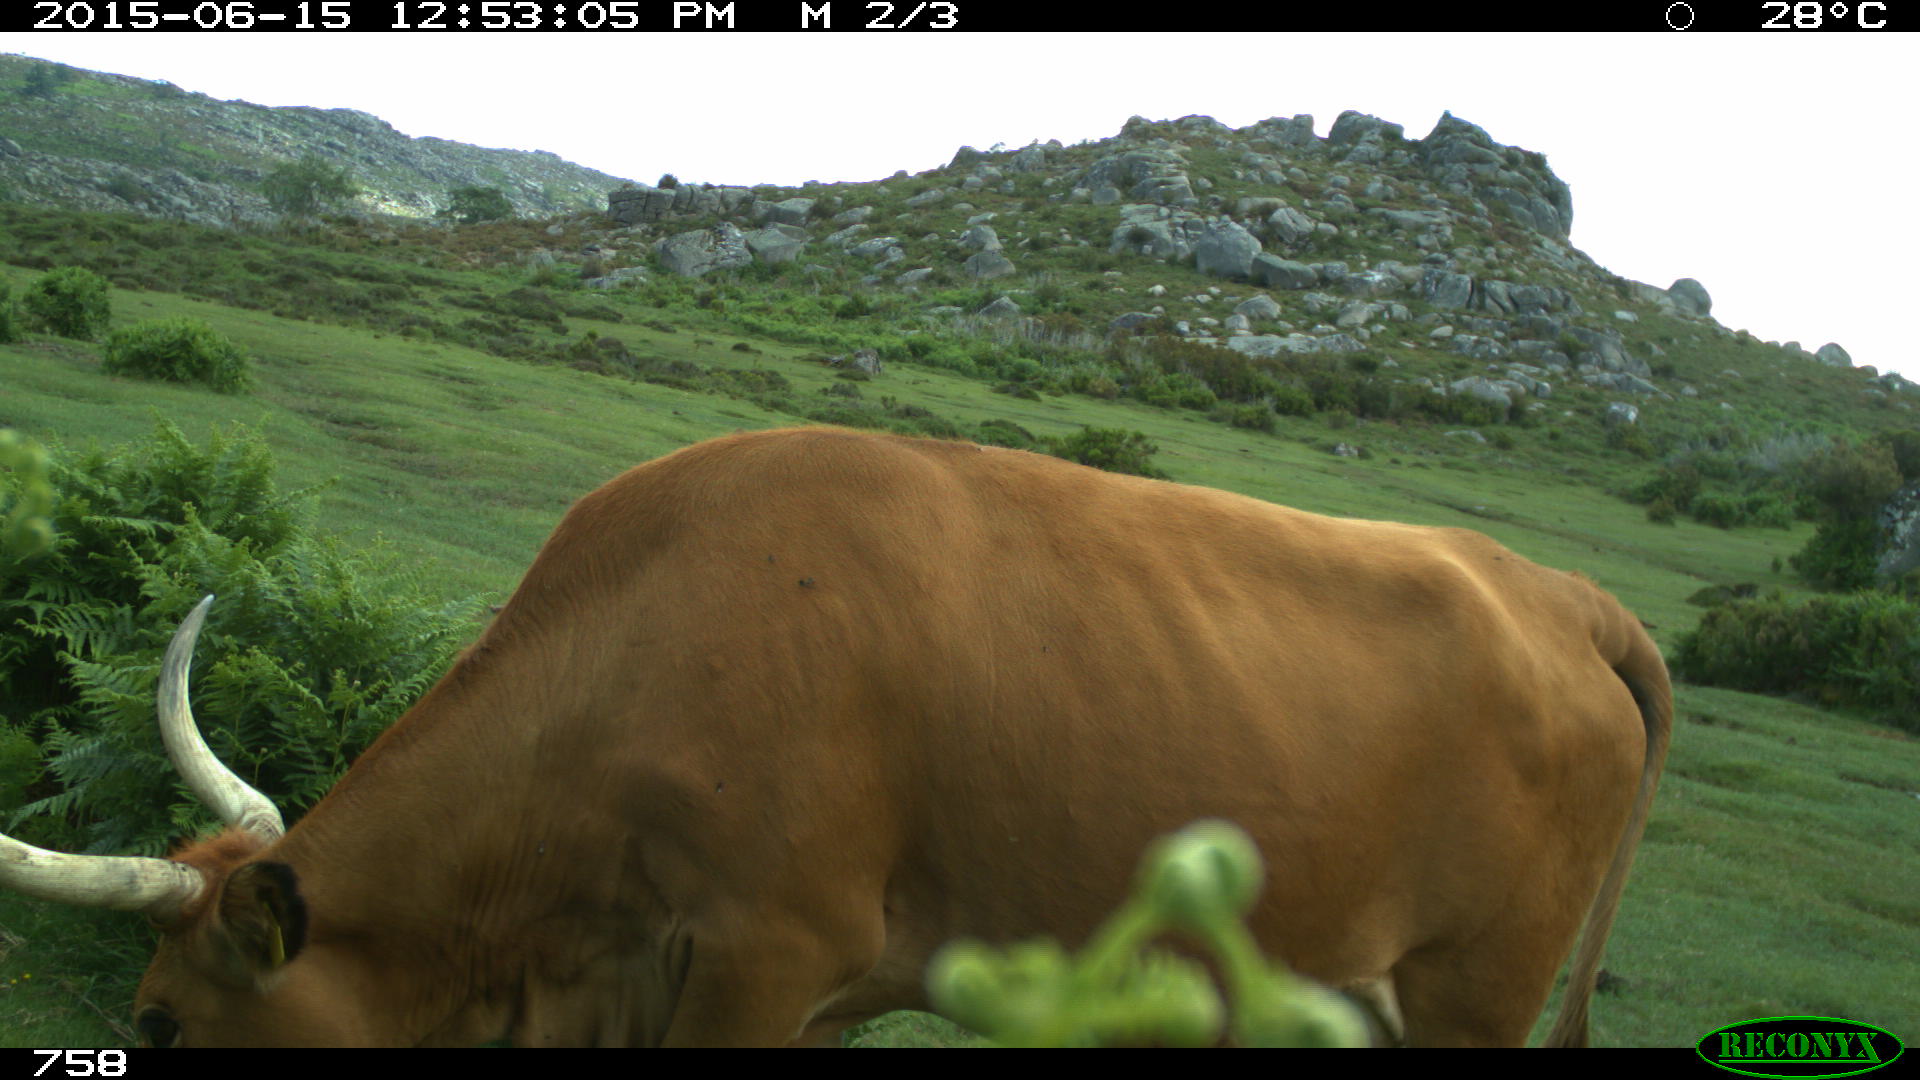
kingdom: Animalia
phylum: Chordata
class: Mammalia
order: Artiodactyla
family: Bovidae
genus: Bos
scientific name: Bos taurus
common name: Domesticated cattle
